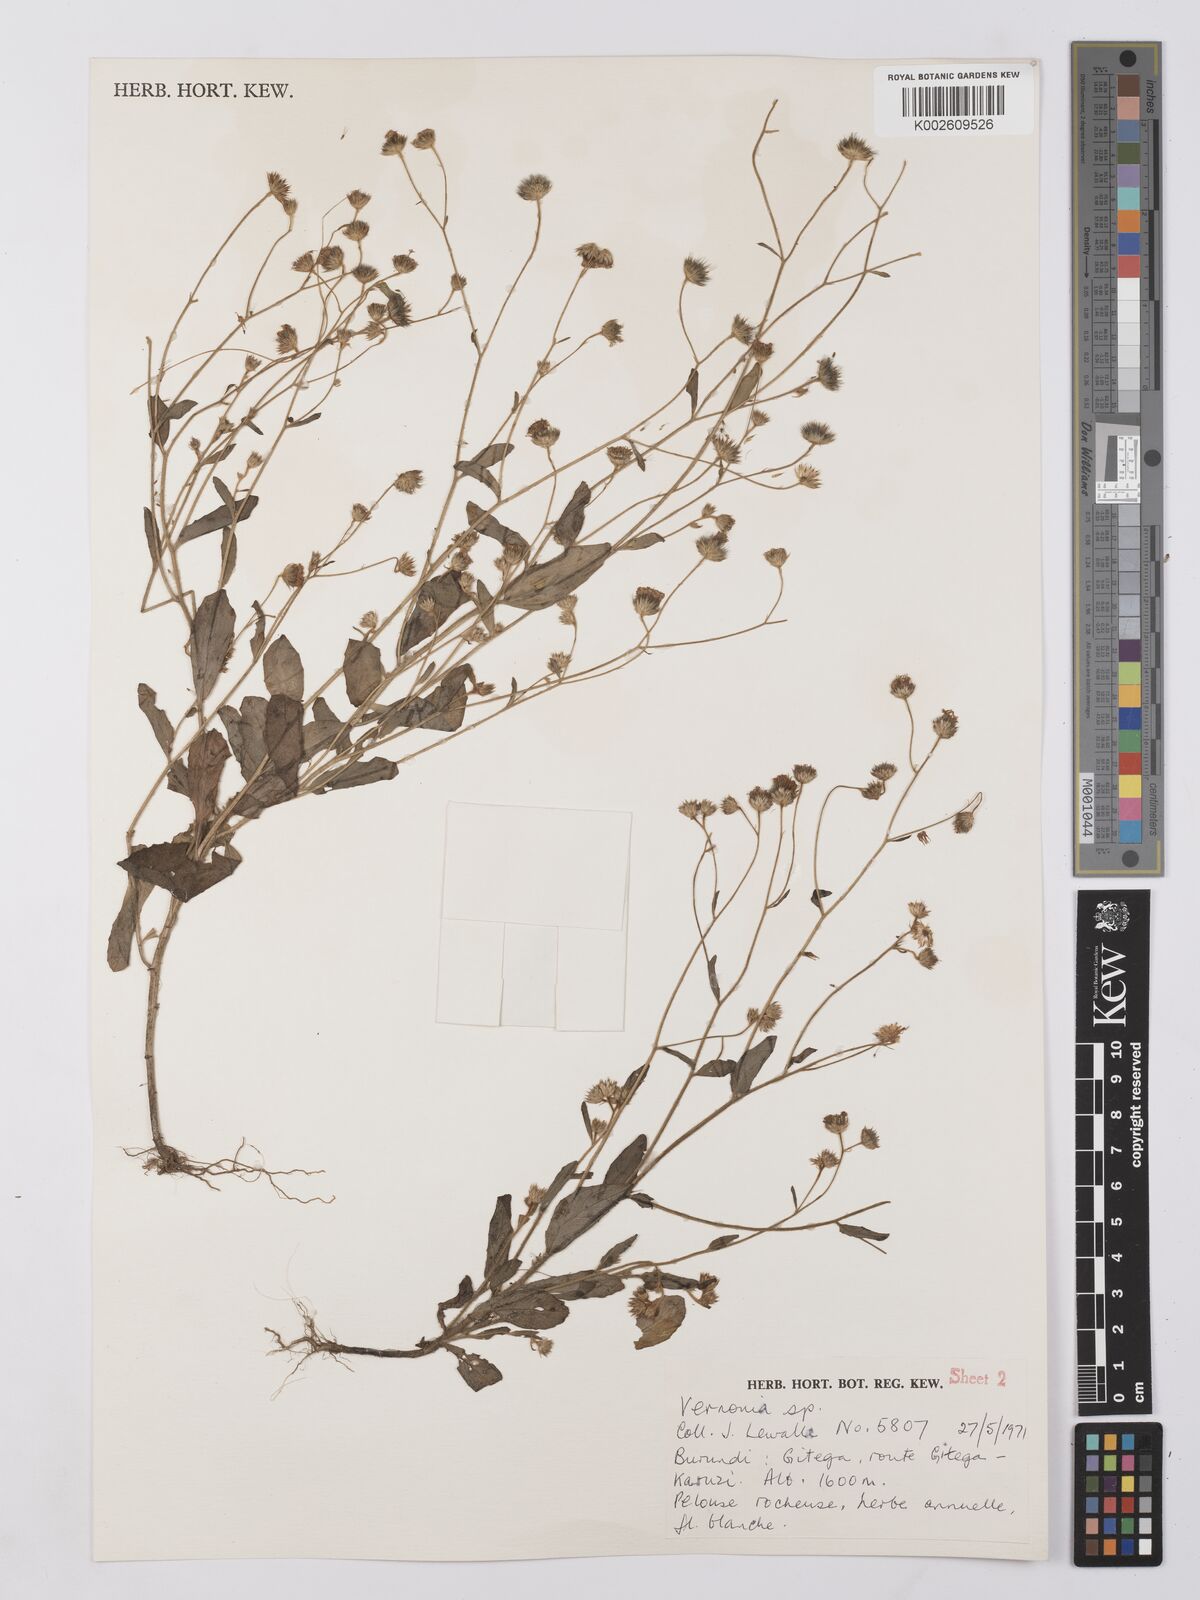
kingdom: Plantae
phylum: Tracheophyta
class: Magnoliopsida
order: Asterales
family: Asteraceae
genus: Vernonia
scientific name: Vernonia
